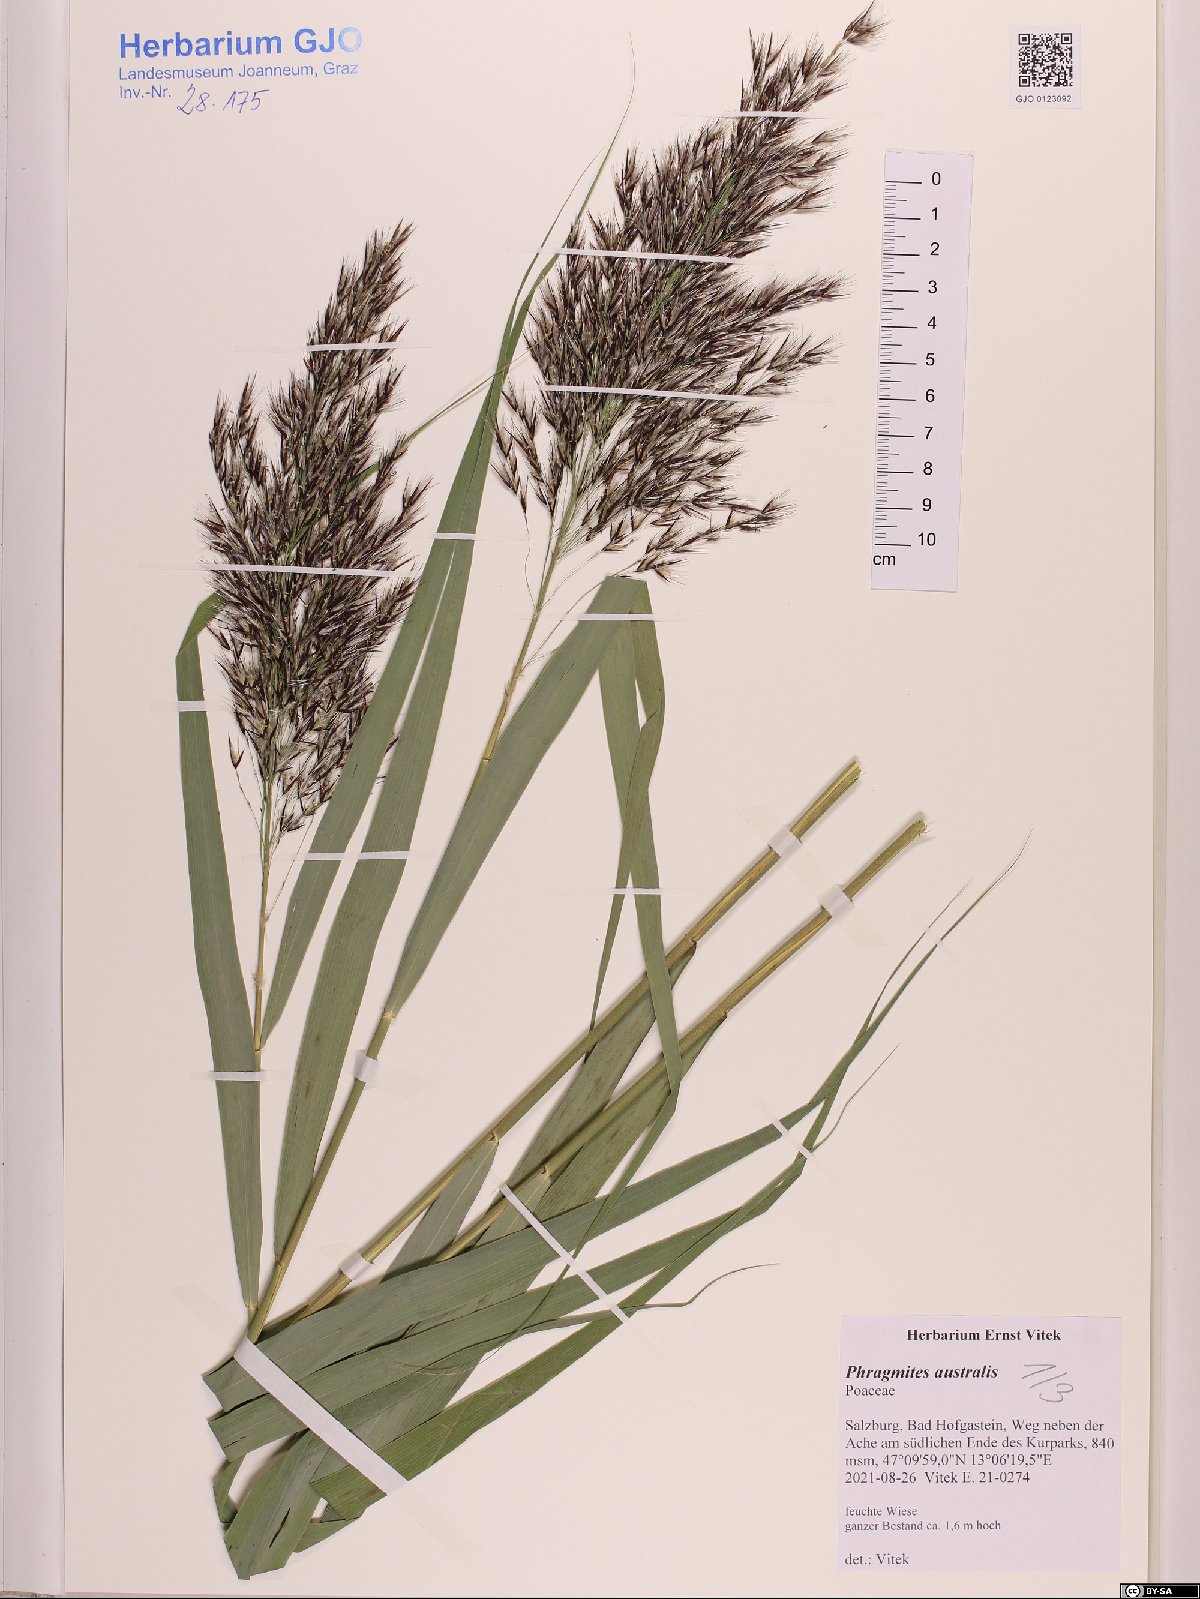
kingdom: Plantae
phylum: Tracheophyta
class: Liliopsida
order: Poales
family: Poaceae
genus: Phragmites
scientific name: Phragmites australis
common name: Common reed
